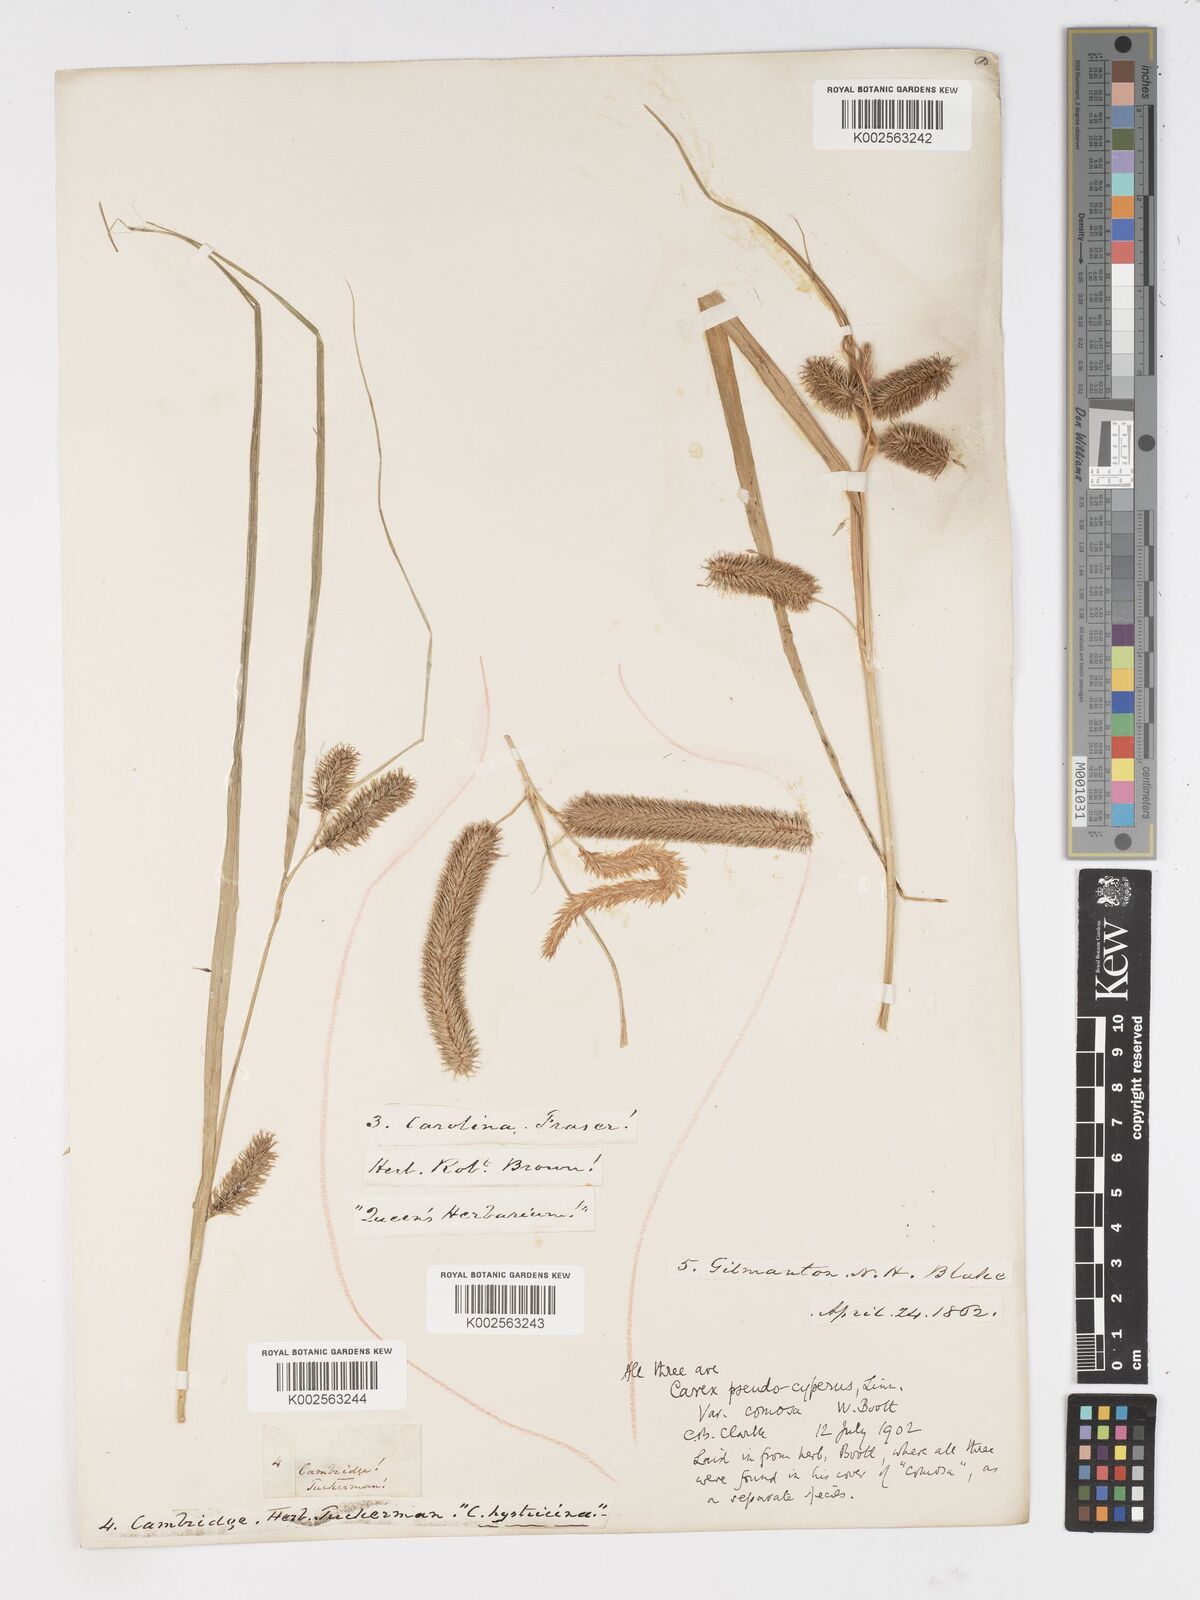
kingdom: Plantae
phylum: Tracheophyta
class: Liliopsida
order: Poales
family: Cyperaceae
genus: Carex
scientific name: Carex comosa
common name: Bristly sedge
